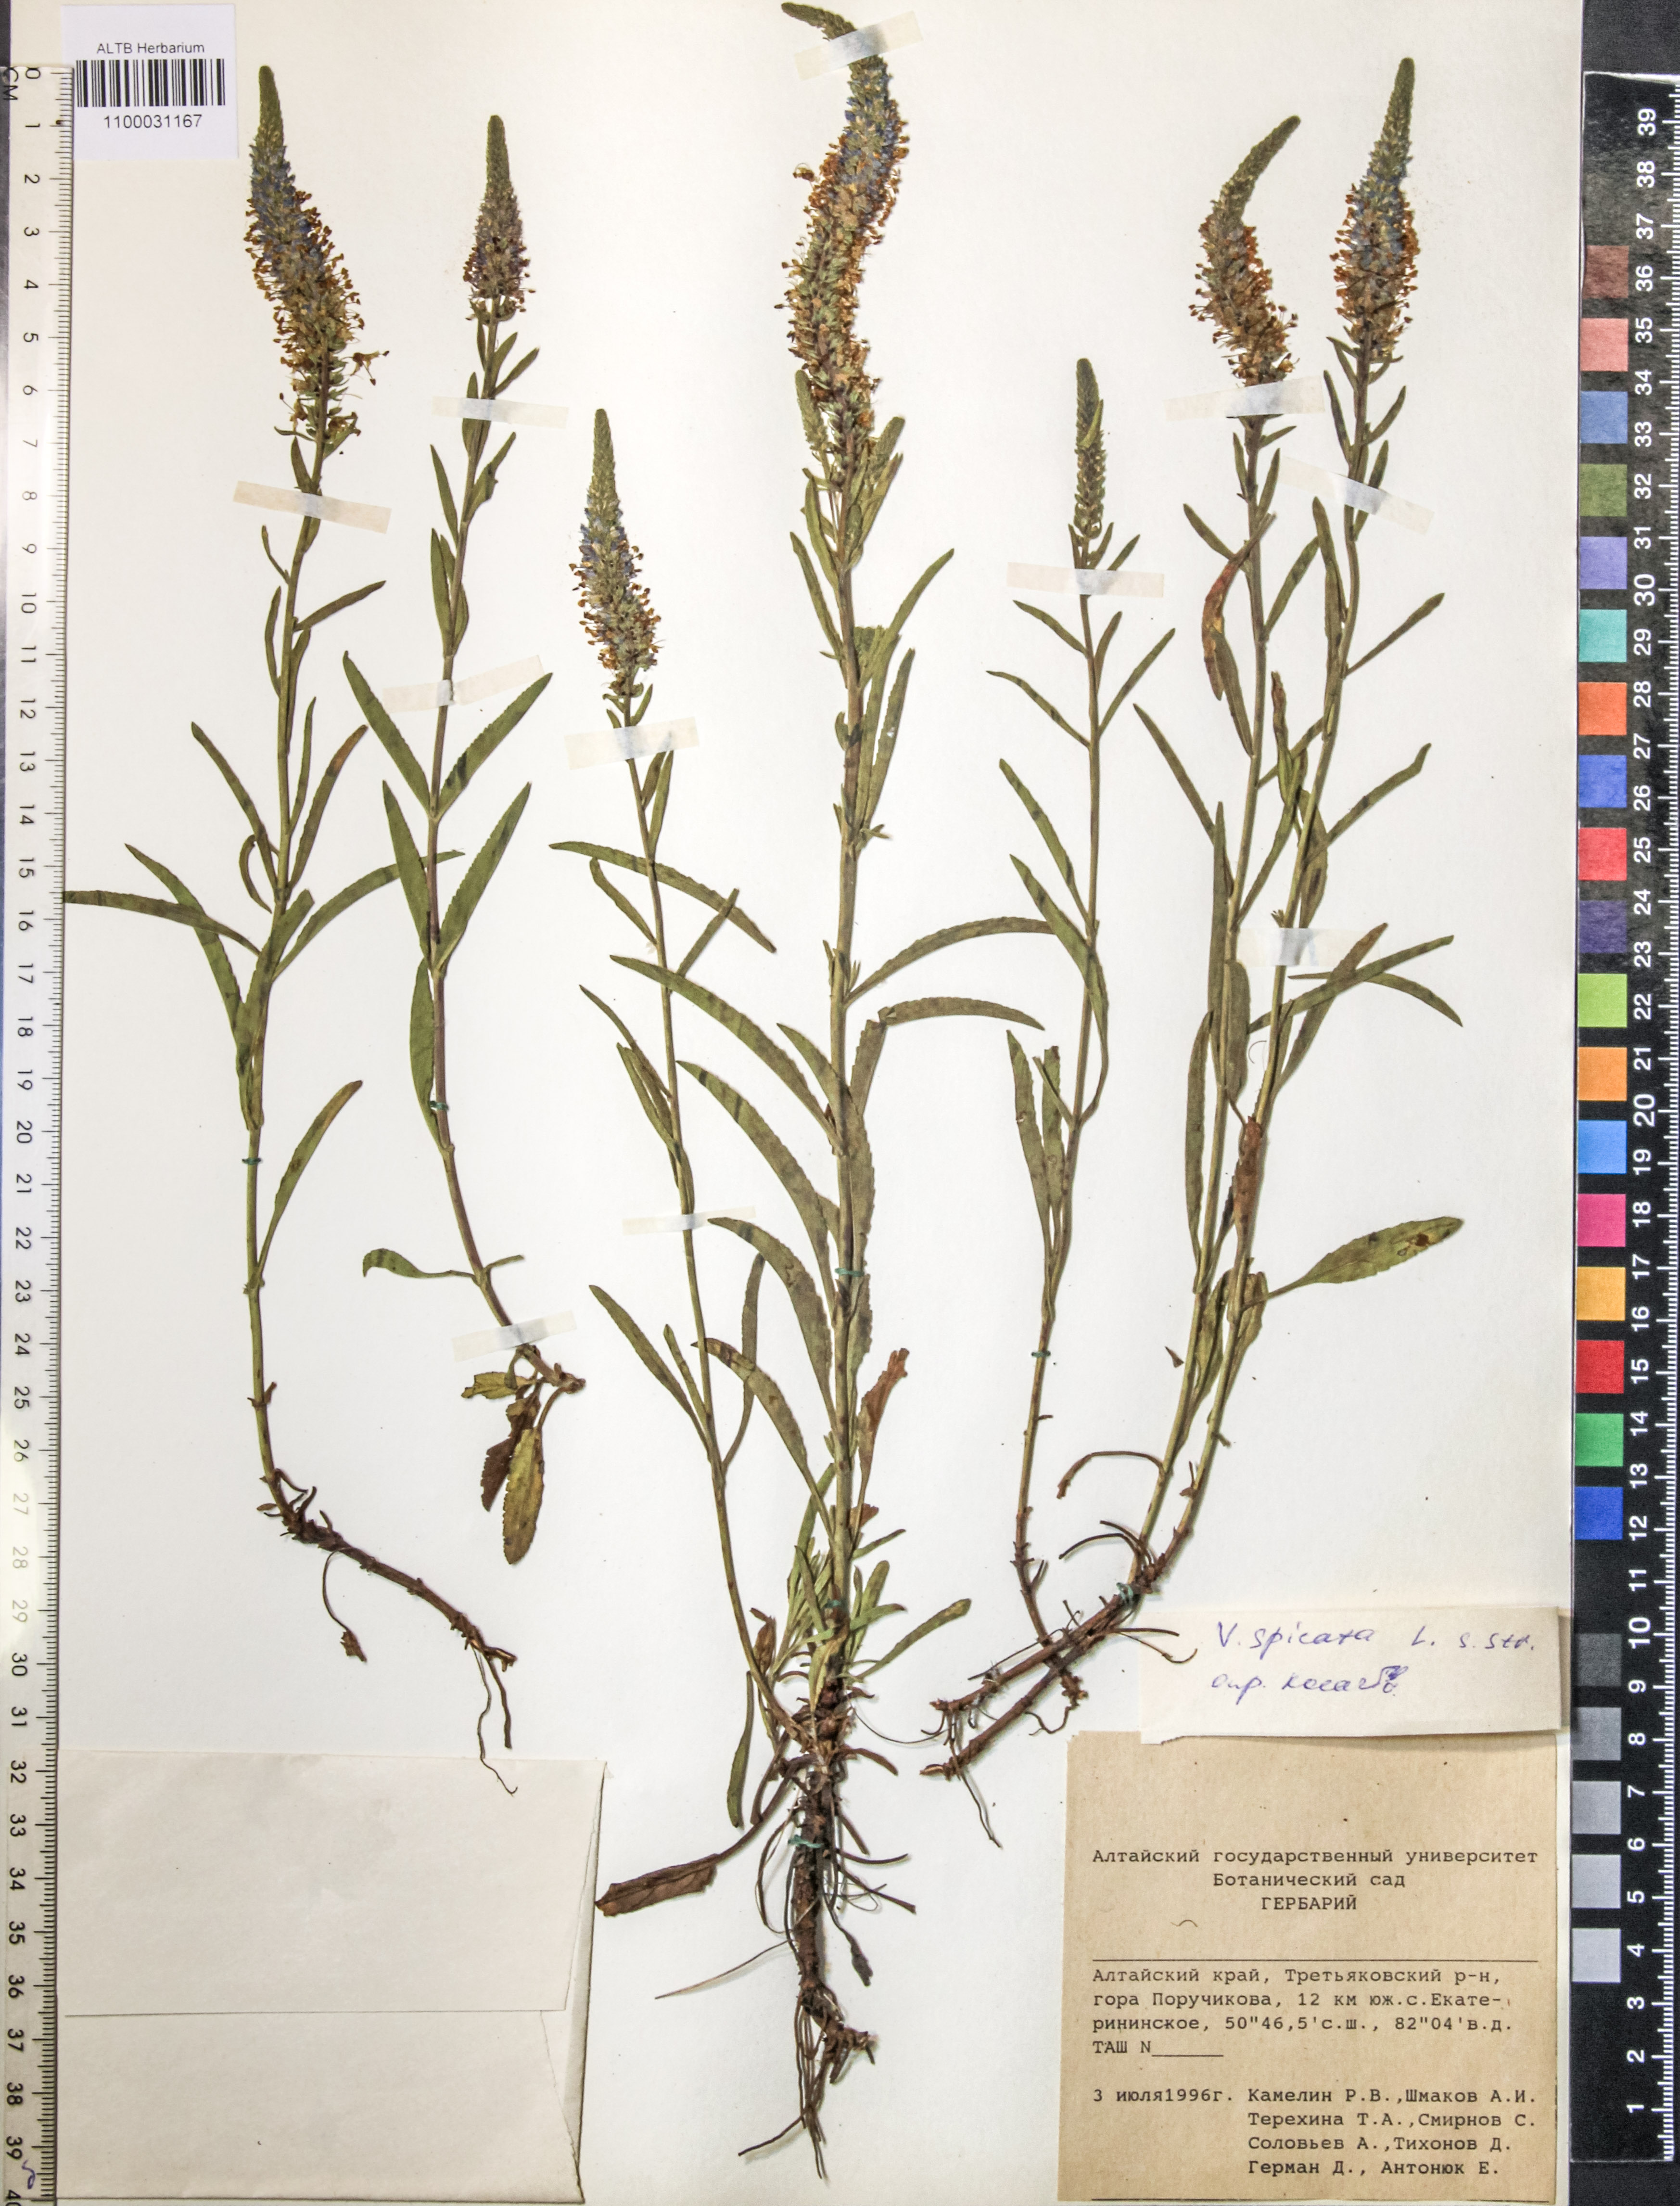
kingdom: Plantae
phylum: Tracheophyta
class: Magnoliopsida
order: Lamiales
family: Plantaginaceae
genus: Veronica
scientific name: Veronica spicata
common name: Spiked speedwell
